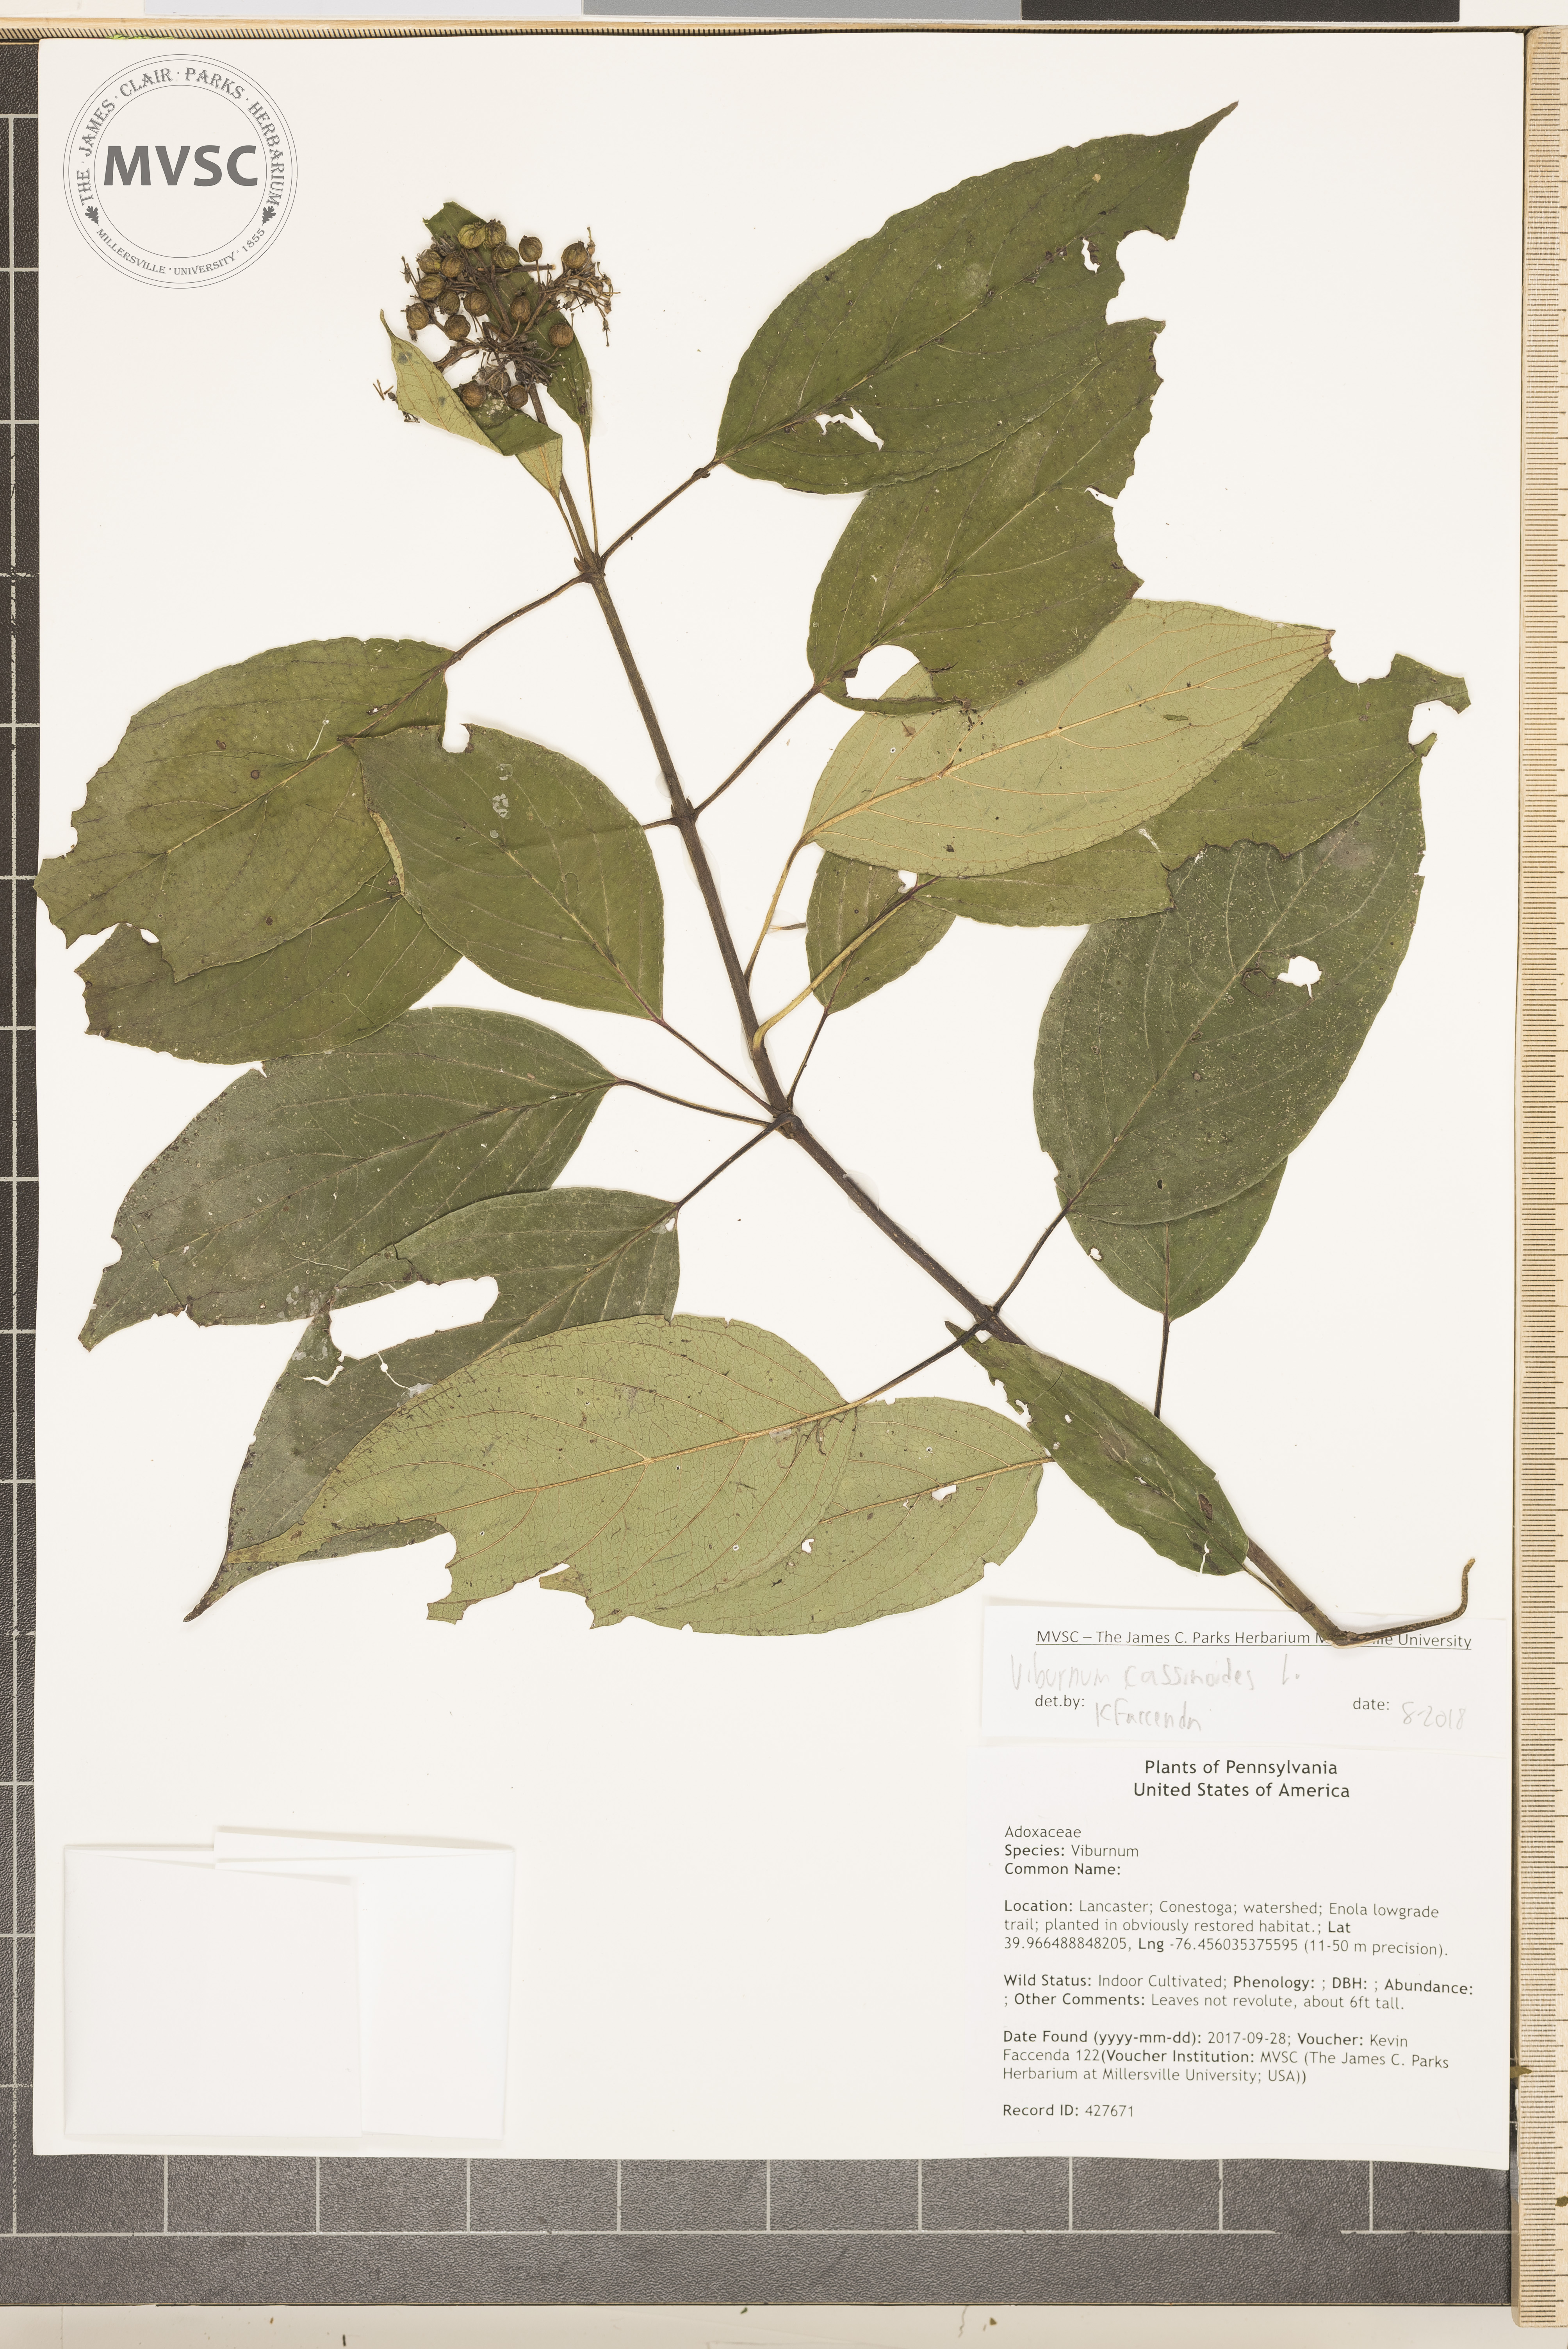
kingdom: Plantae
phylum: Tracheophyta
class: Magnoliopsida
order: Dipsacales
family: Viburnaceae
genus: Viburnum
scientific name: Viburnum cassinoides
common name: Swamp haw
